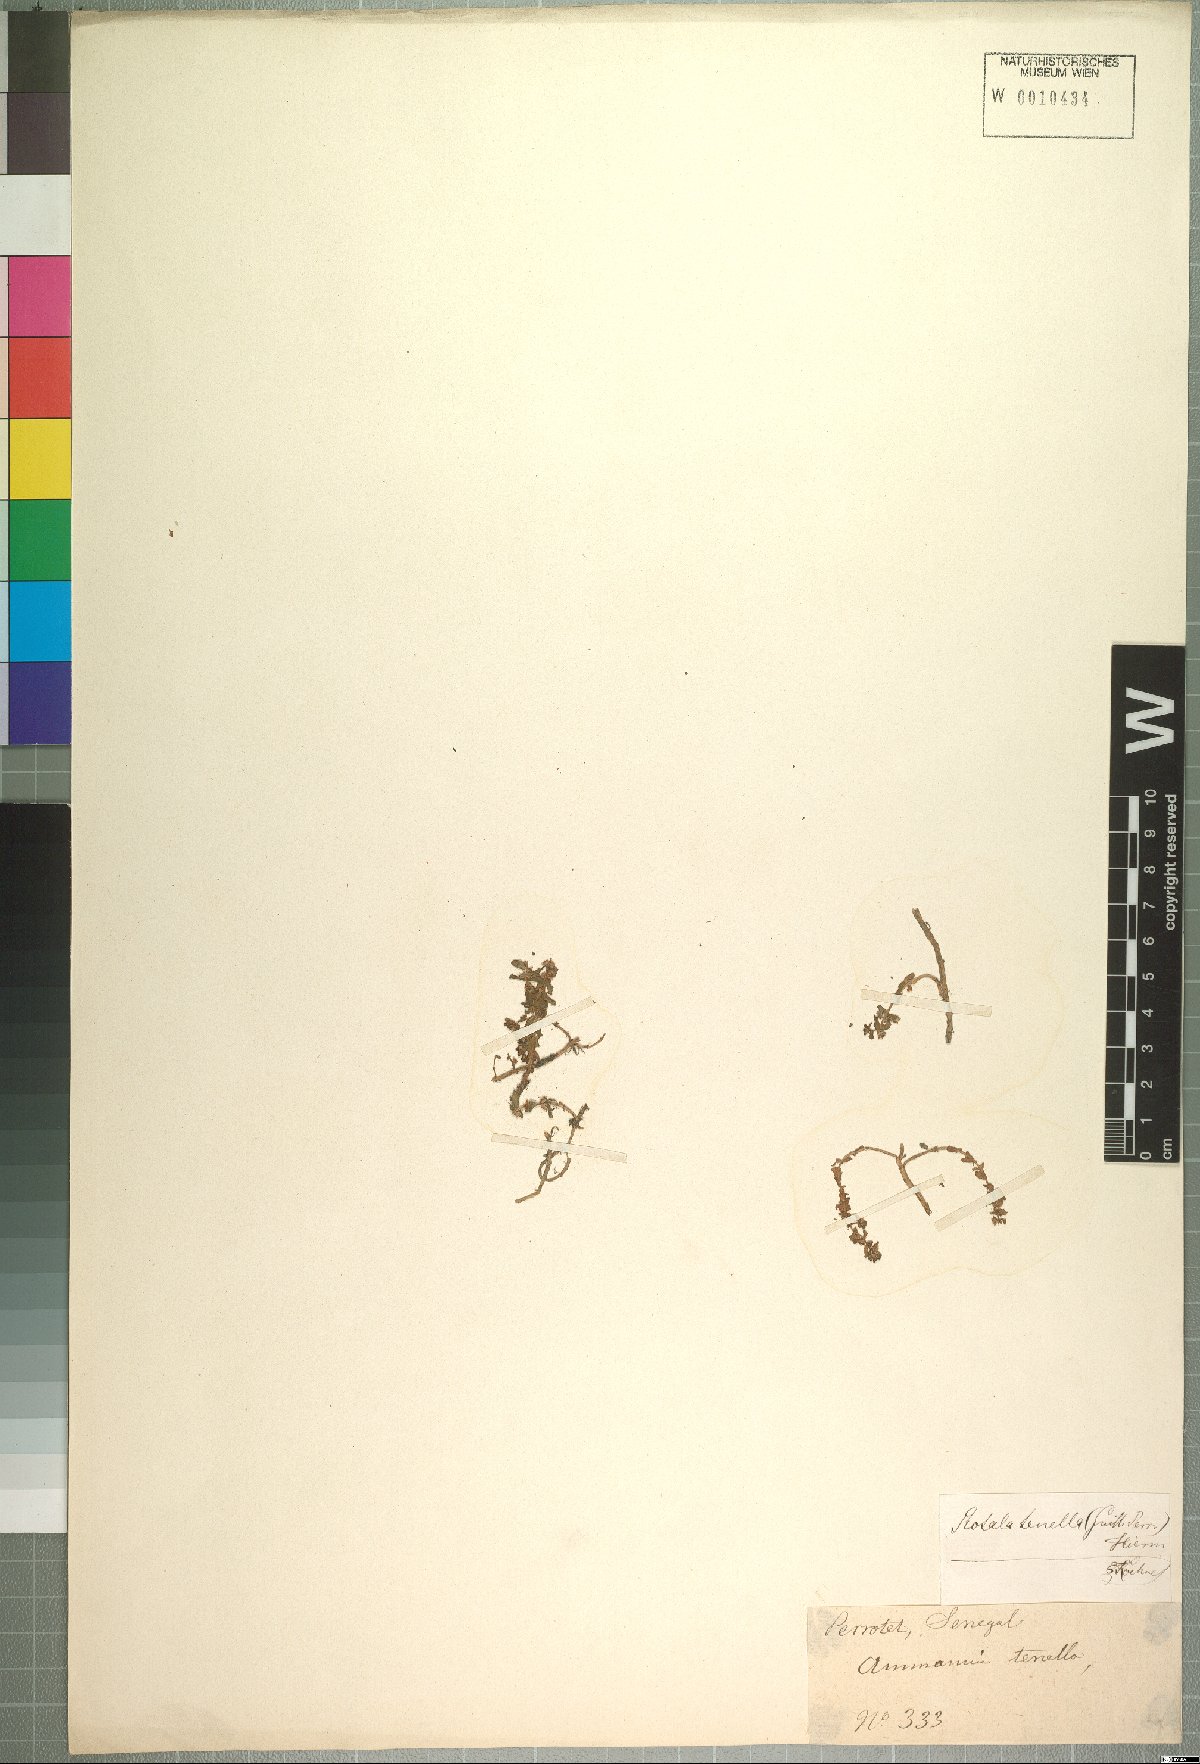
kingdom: Plantae
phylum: Tracheophyta
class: Magnoliopsida
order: Myrtales
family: Lythraceae
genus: Rotala
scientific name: Rotala tenella
